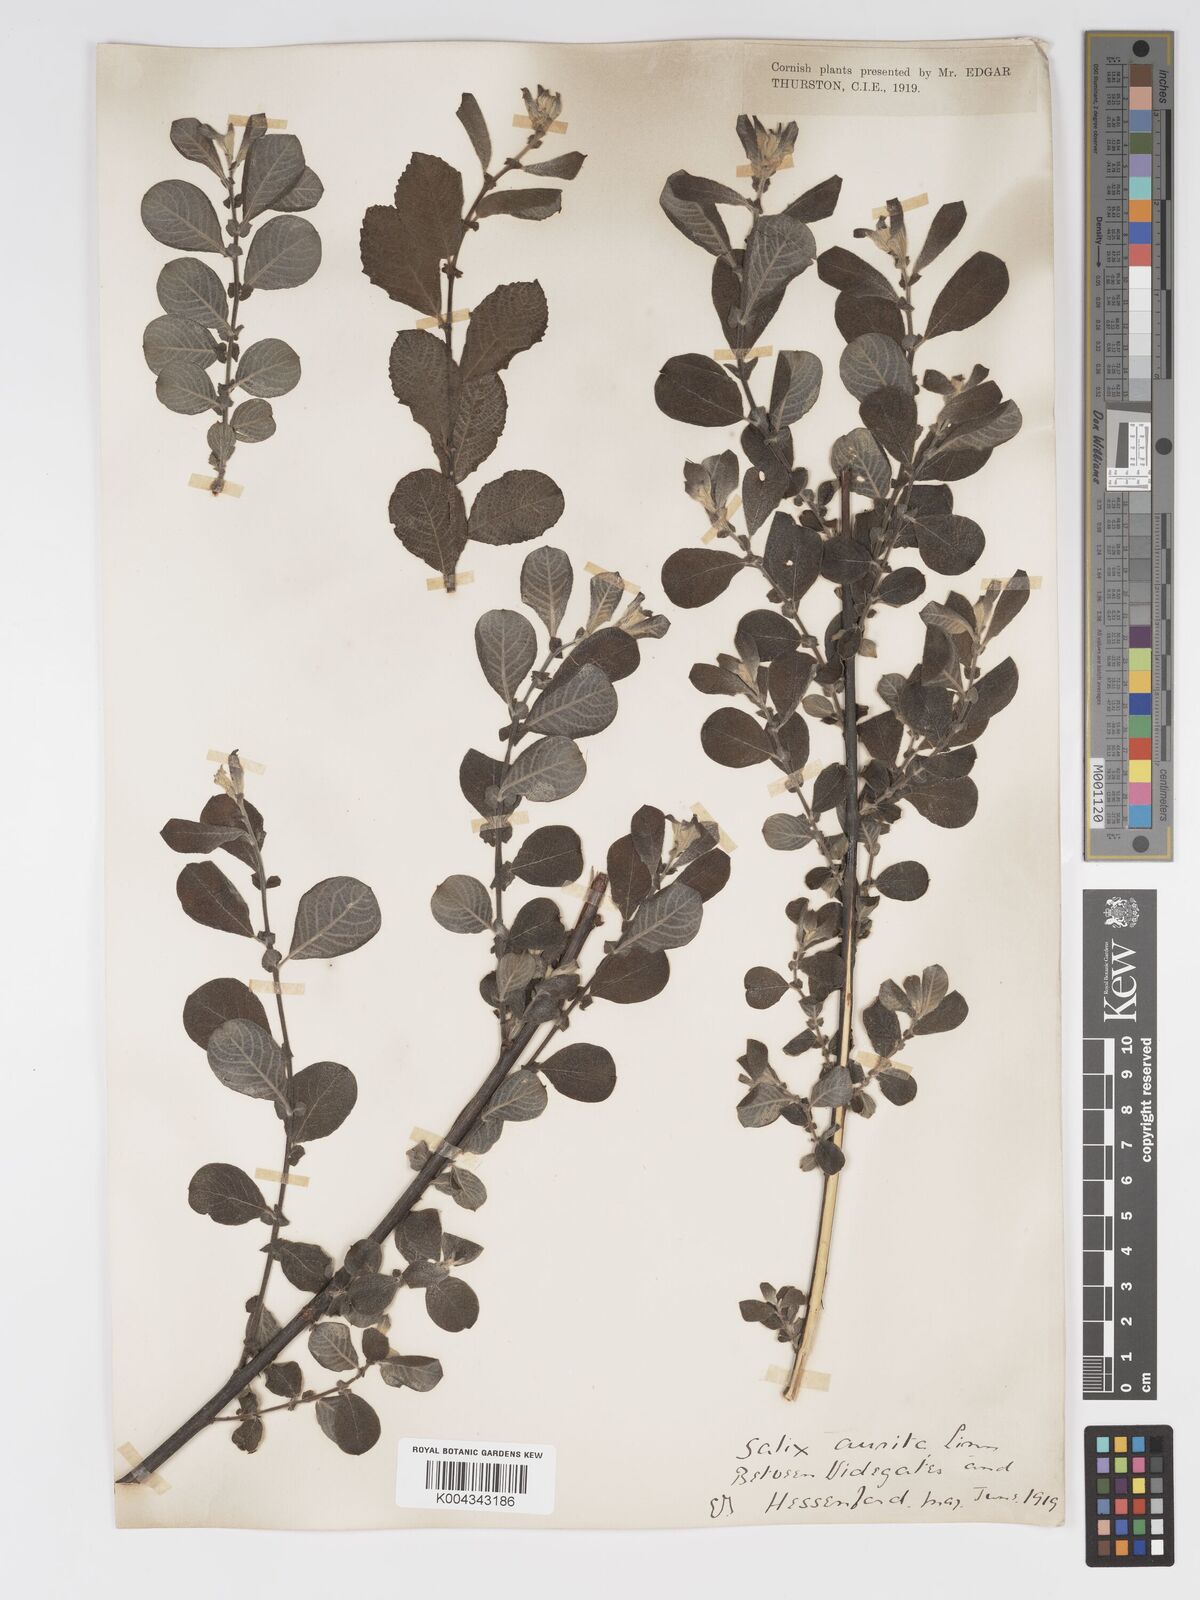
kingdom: Plantae
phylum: Tracheophyta
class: Magnoliopsida
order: Malpighiales
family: Salicaceae
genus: Salix
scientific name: Salix aurita
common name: Eared willow
